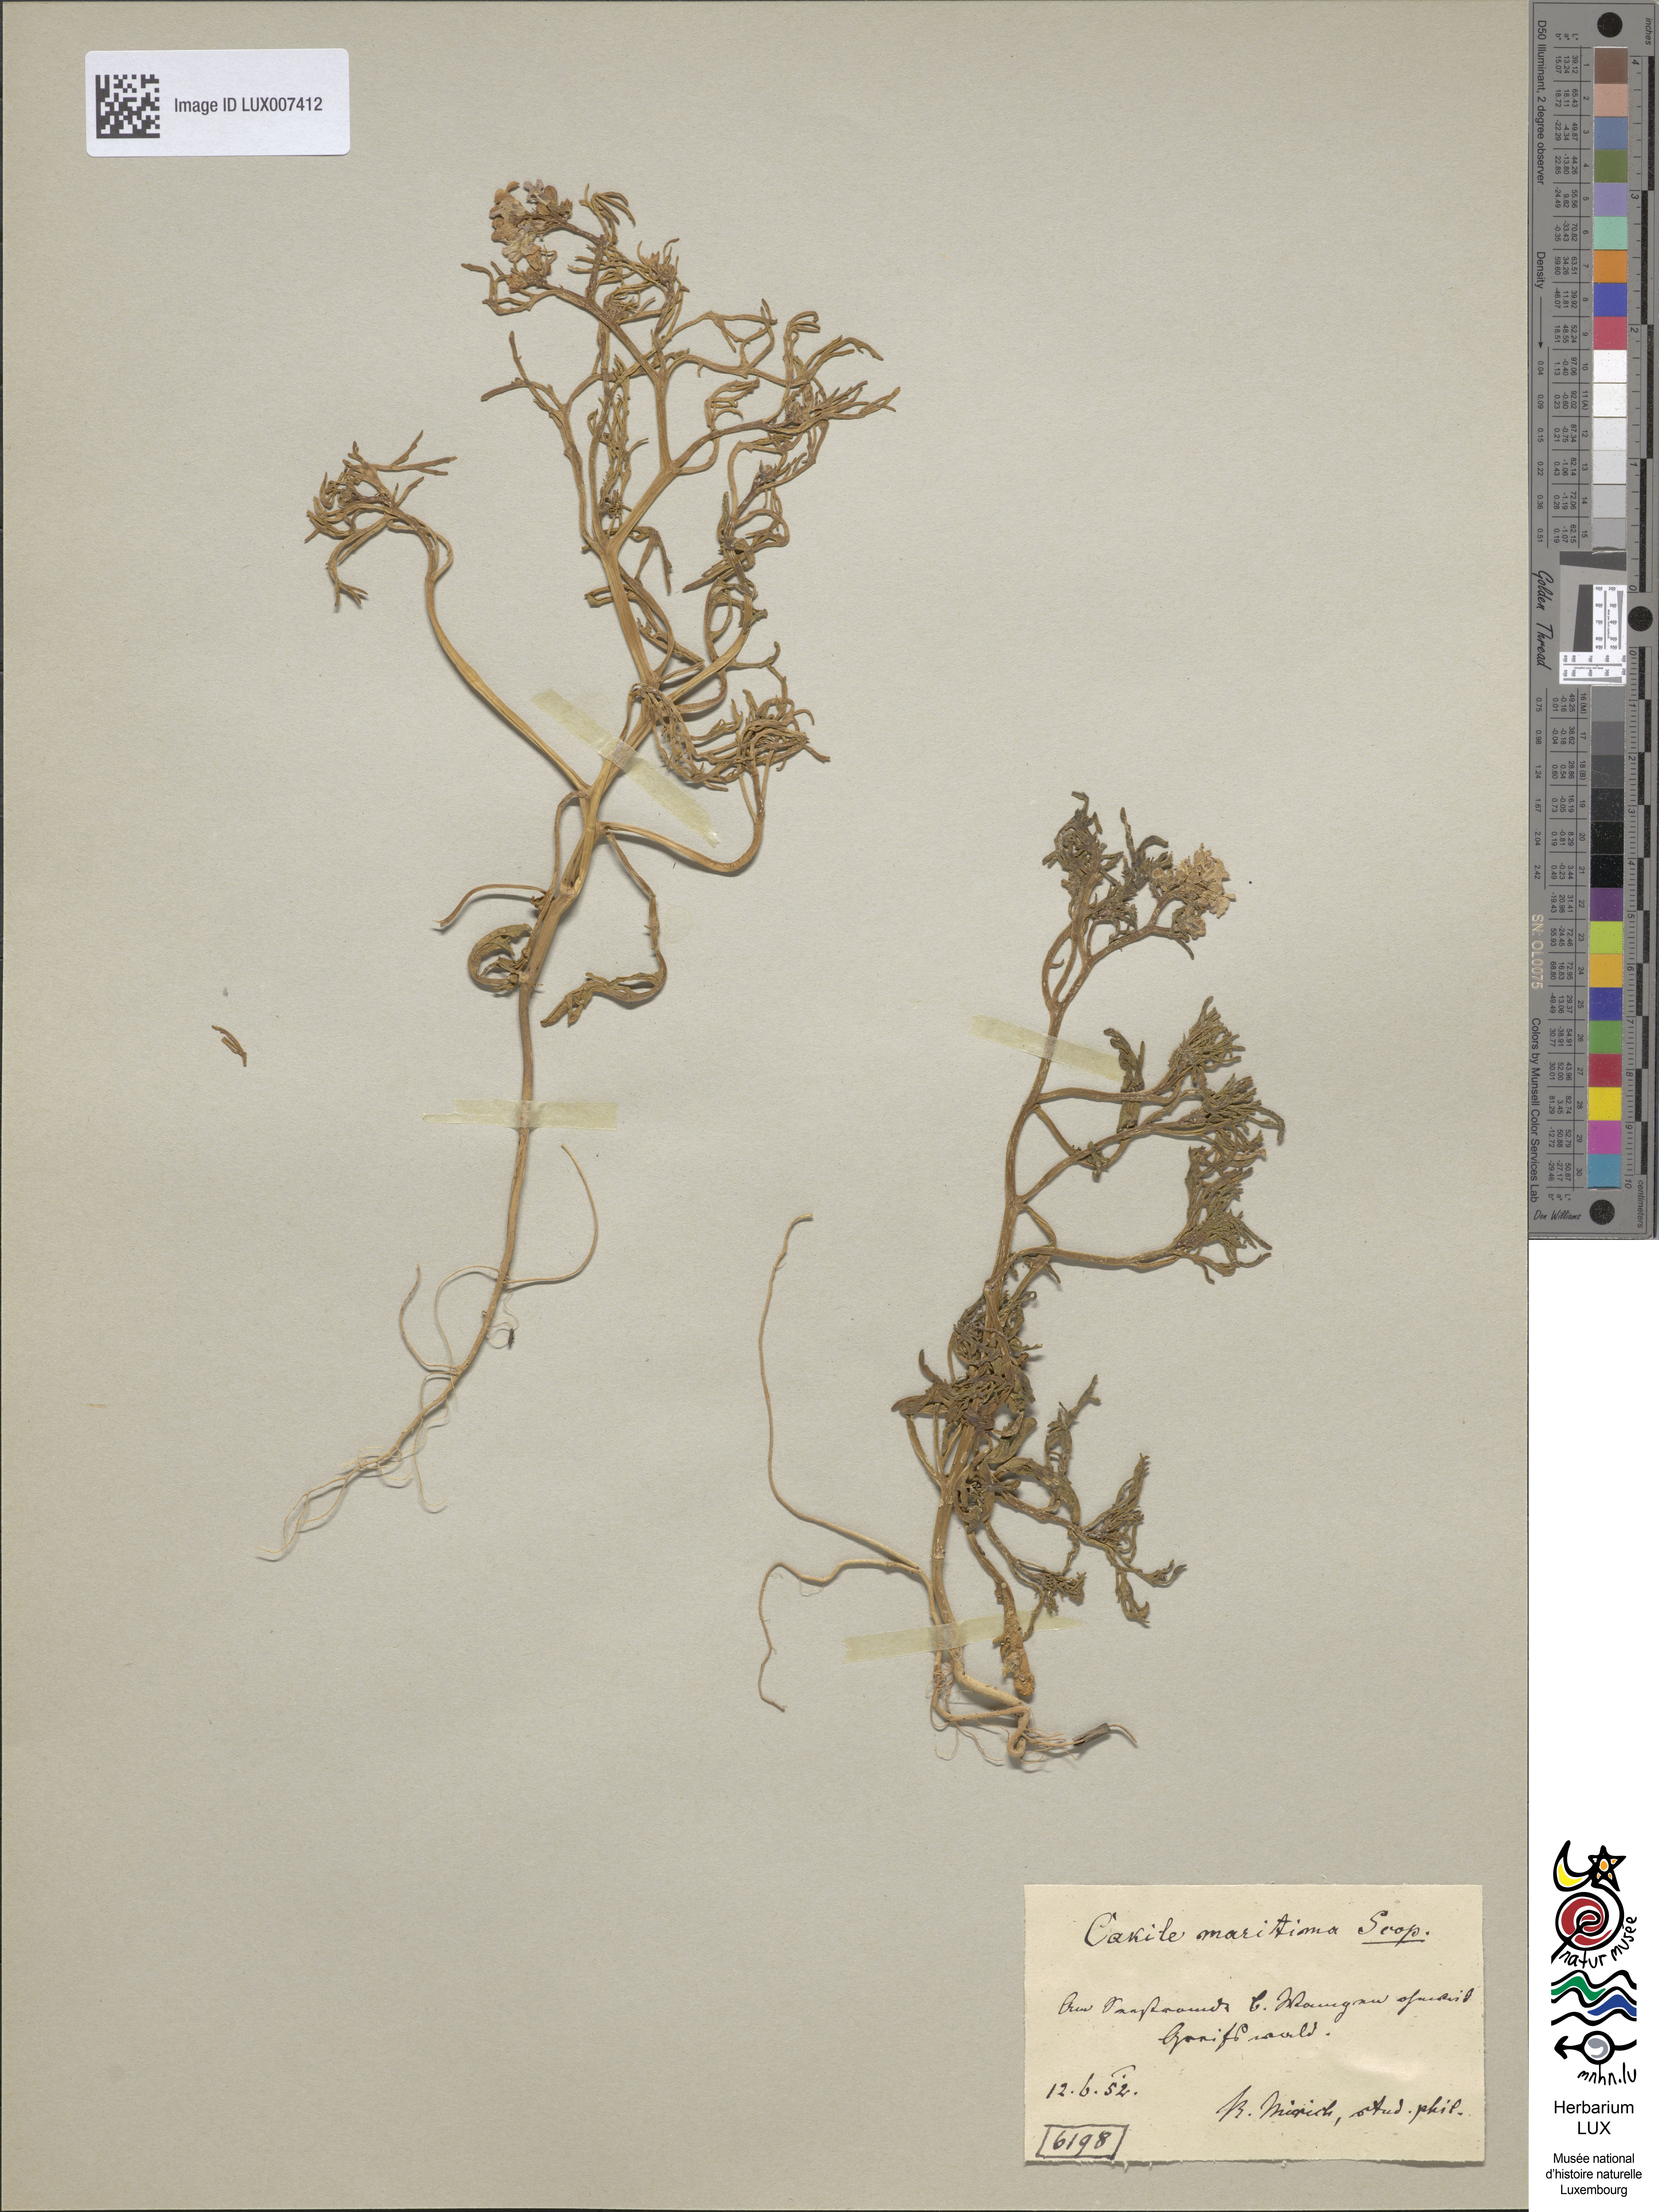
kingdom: Plantae
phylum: Tracheophyta
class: Magnoliopsida
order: Brassicales
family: Brassicaceae
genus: Cakile
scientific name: Cakile maritima
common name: Sea rocket
